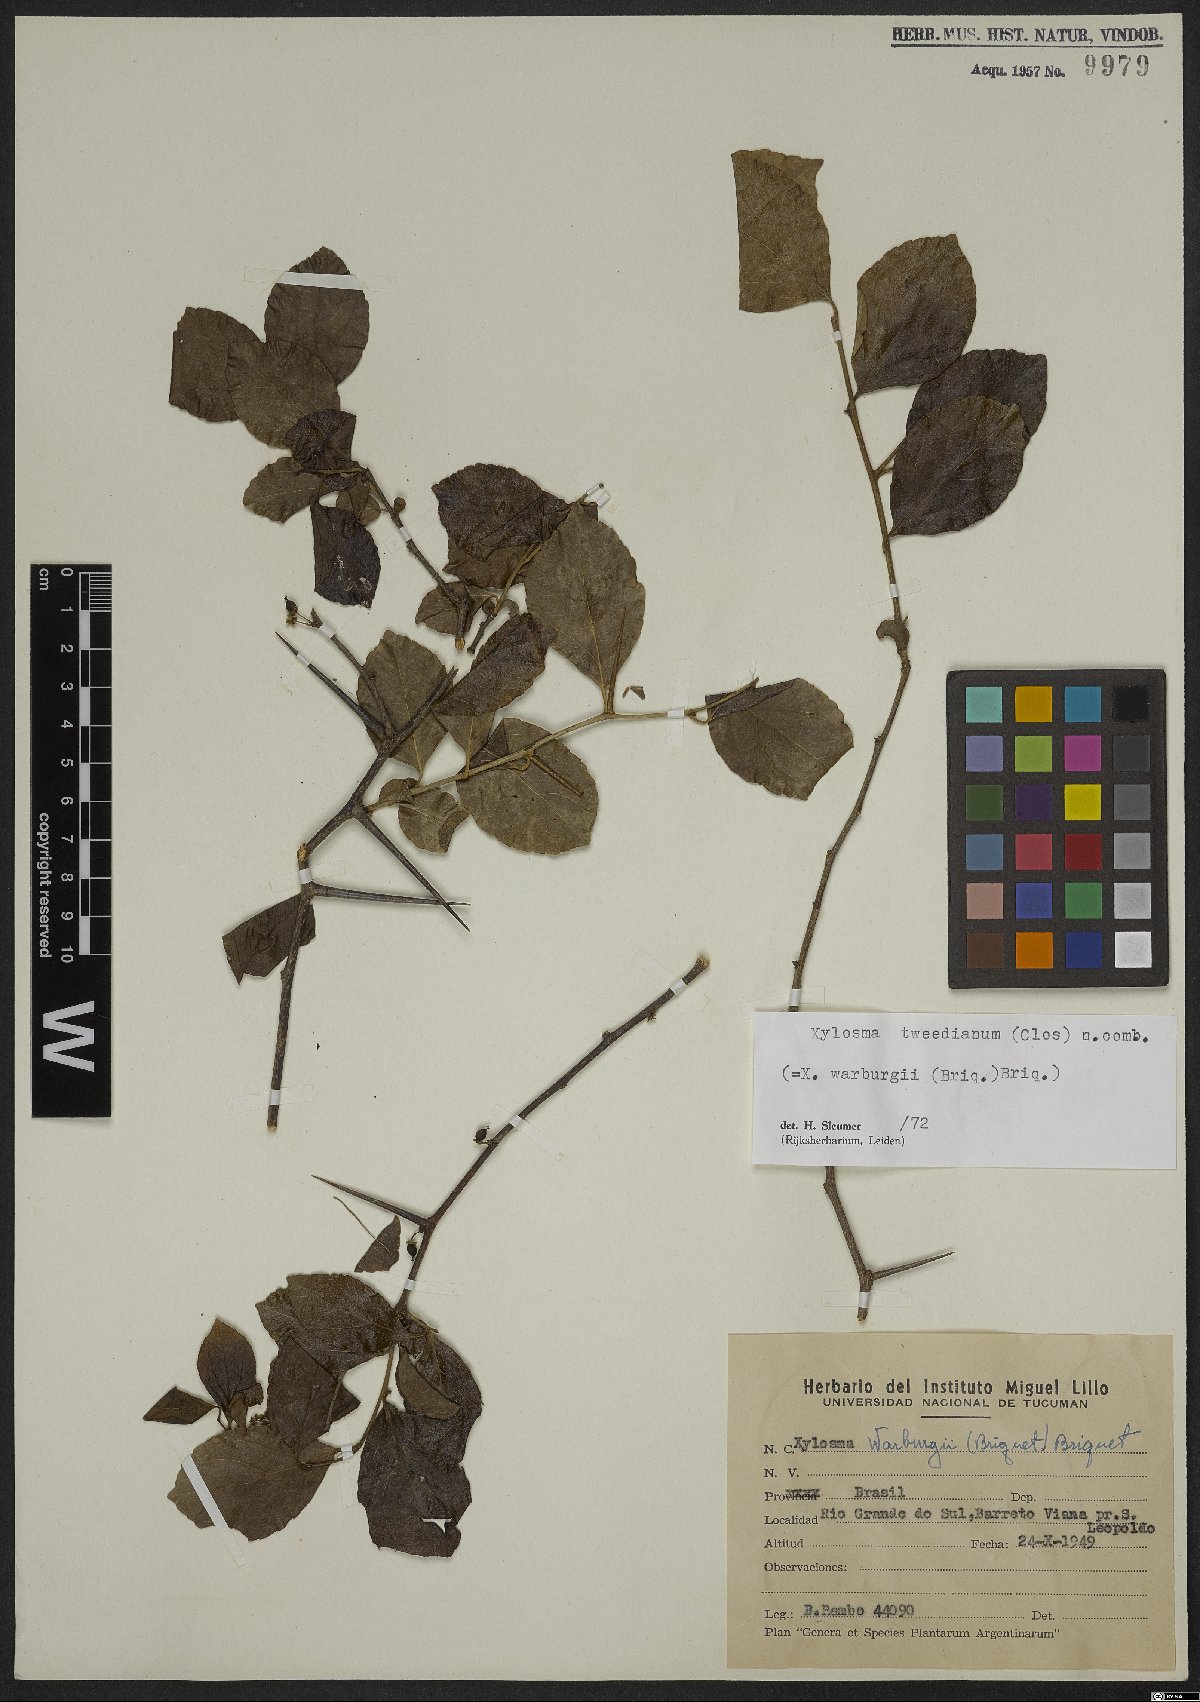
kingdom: Plantae
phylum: Tracheophyta
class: Magnoliopsida
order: Malpighiales
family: Salicaceae
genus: Xylosma
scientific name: Xylosma tweediana
